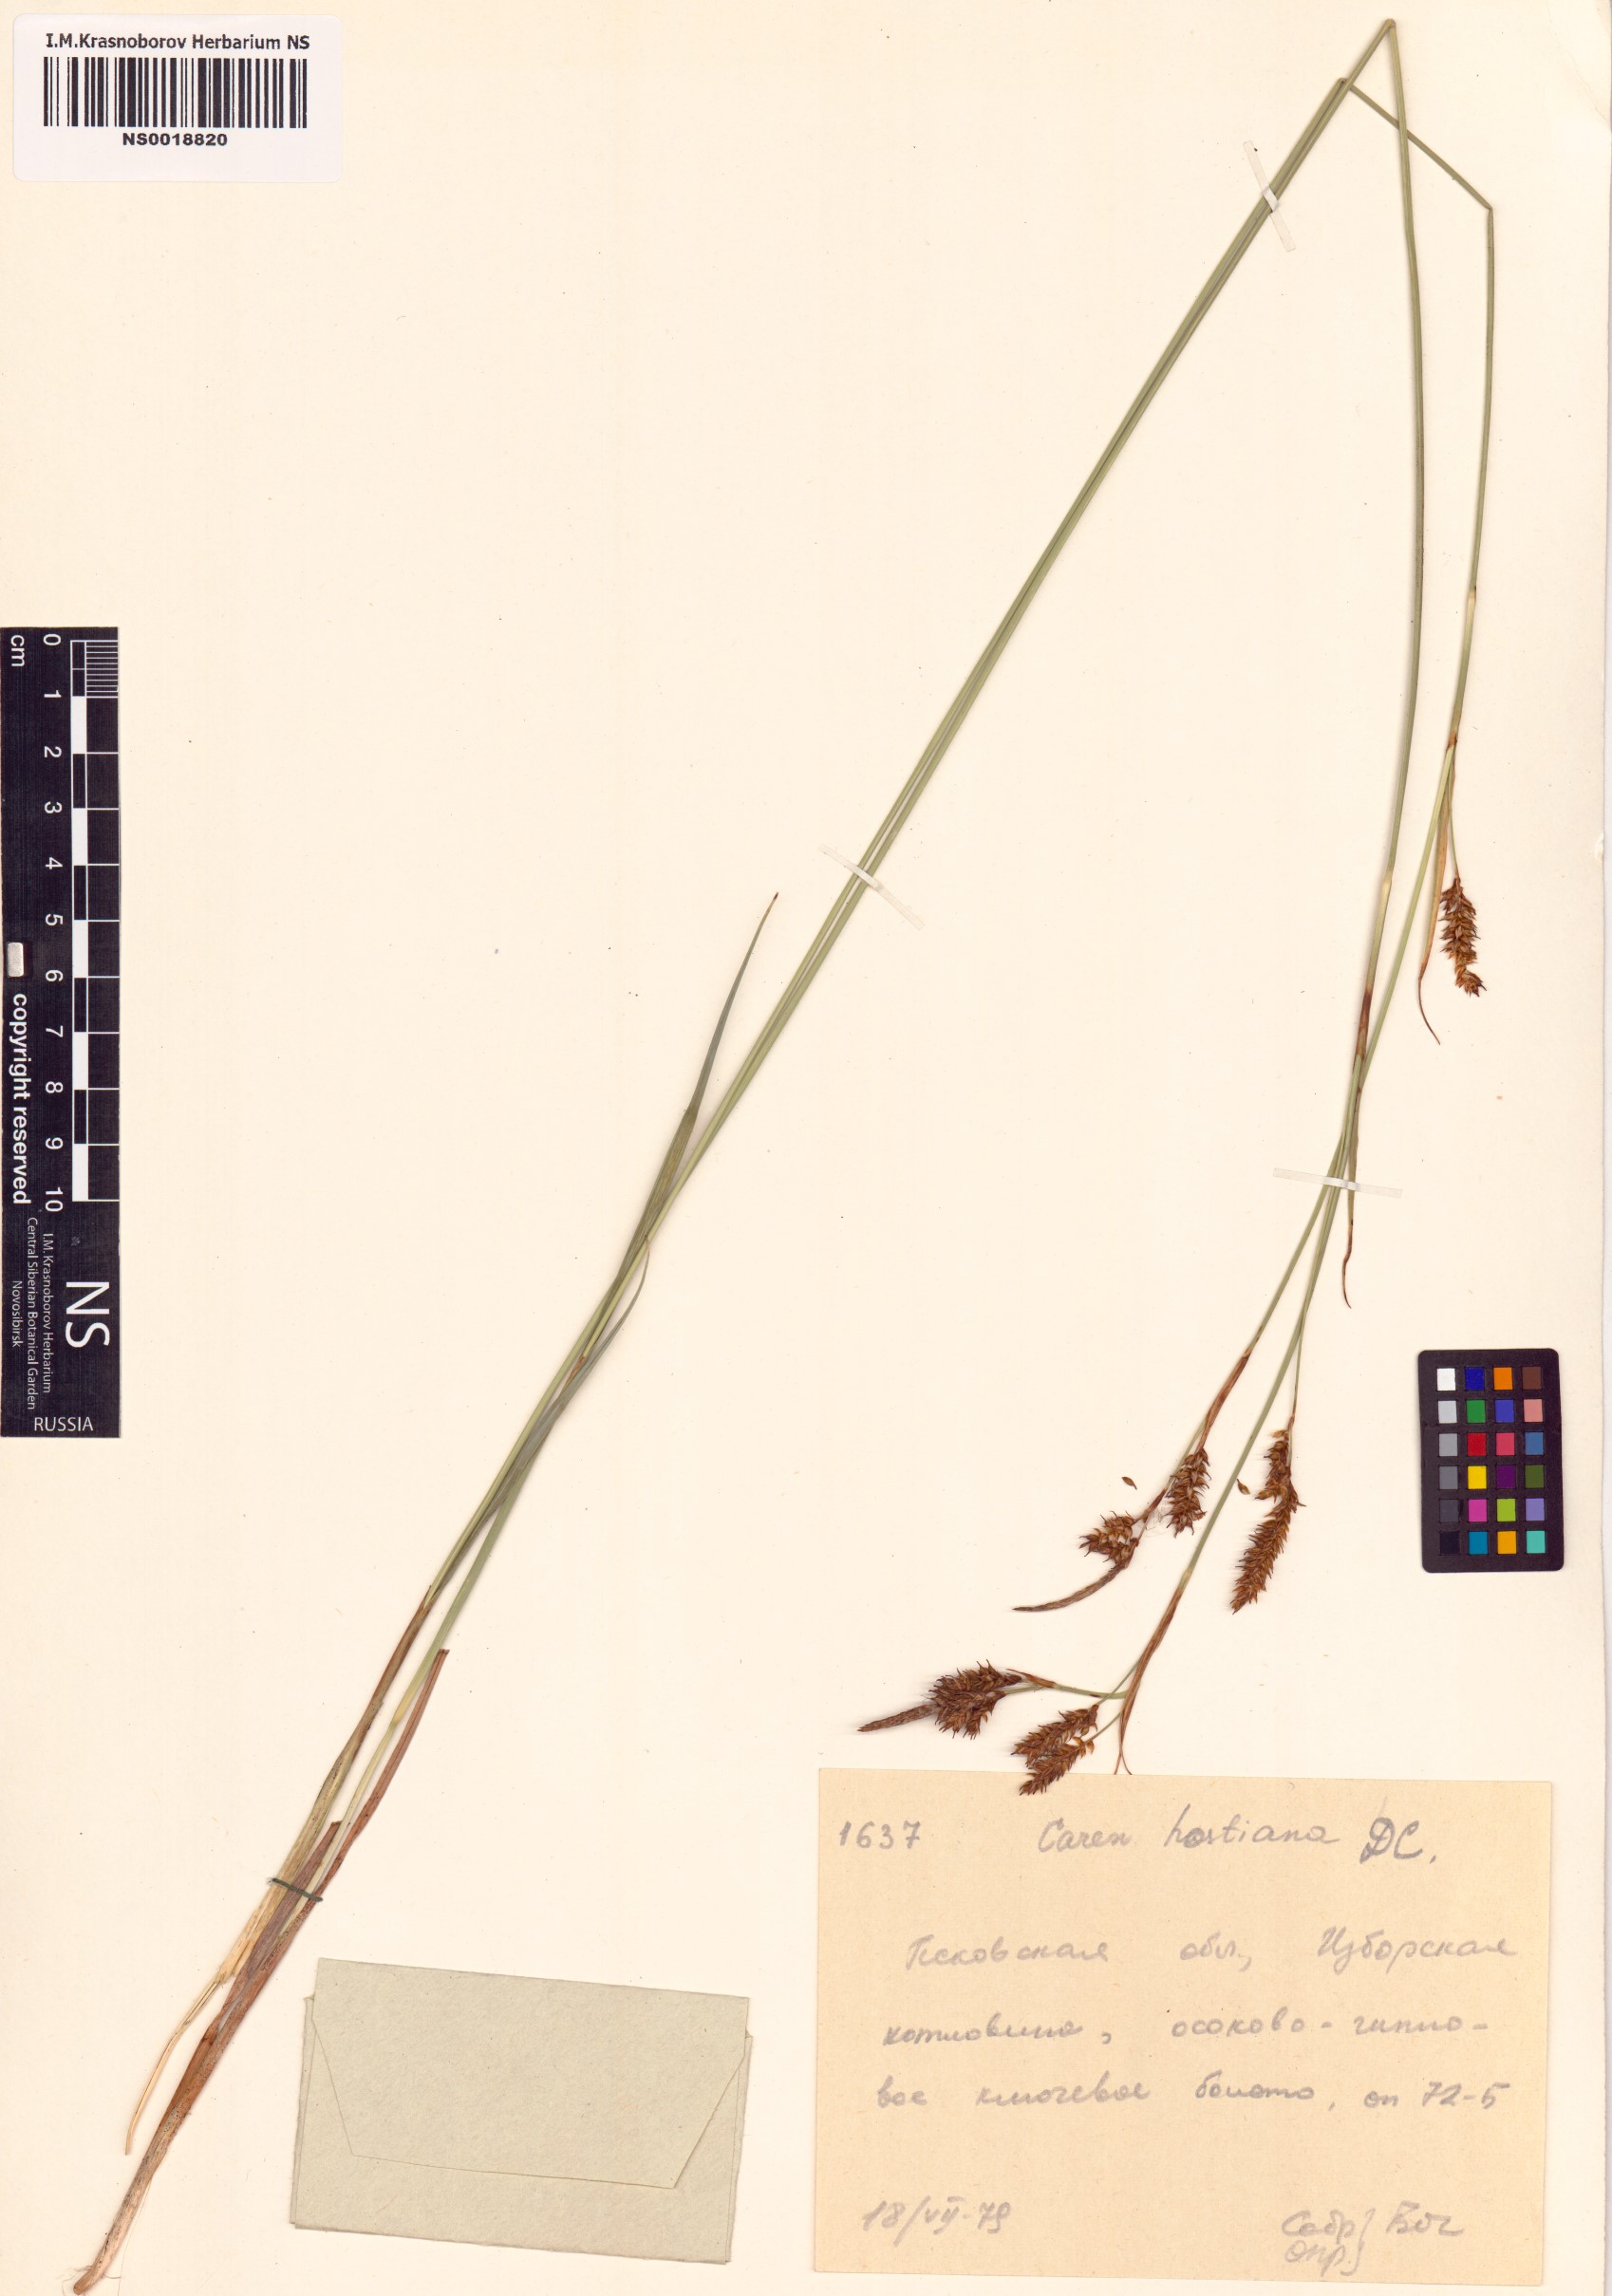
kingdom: Plantae
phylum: Tracheophyta
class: Liliopsida
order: Poales
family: Cyperaceae
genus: Carex
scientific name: Carex hostiana
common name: Tawny sedge
